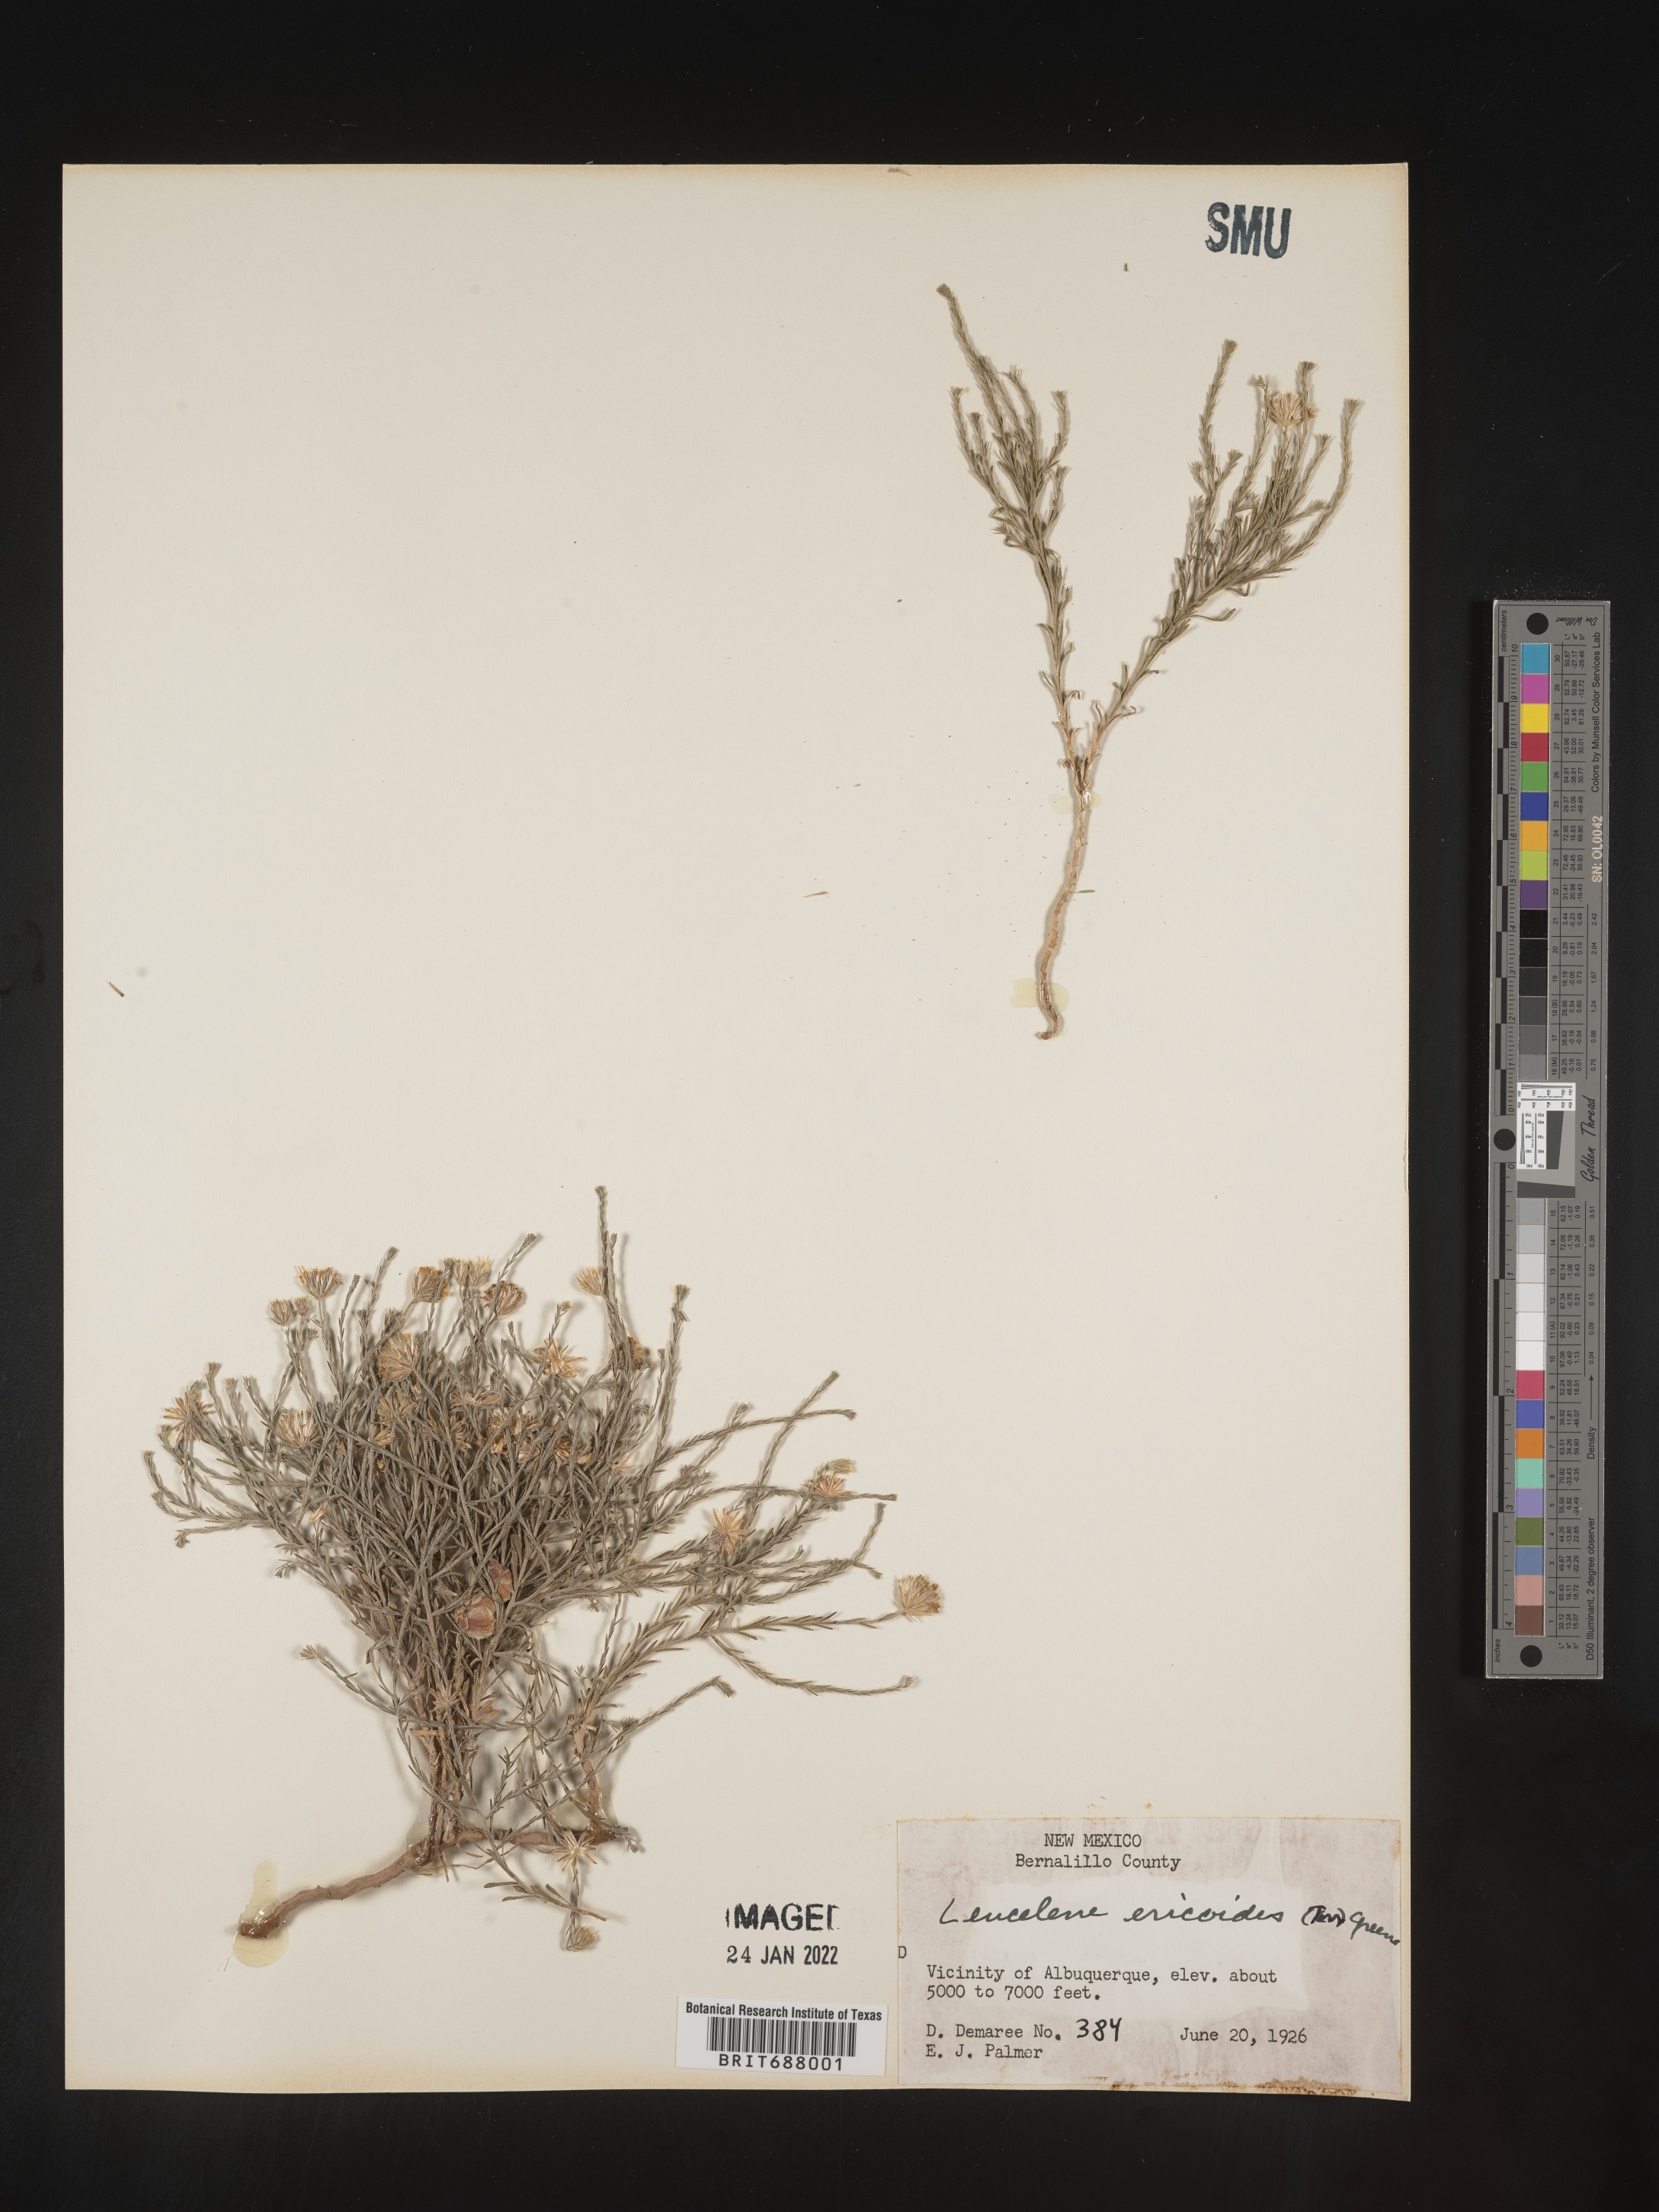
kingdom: Plantae
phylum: Tracheophyta
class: Magnoliopsida
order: Asterales
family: Asteraceae
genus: Chaetopappa
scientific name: Chaetopappa ericoides
